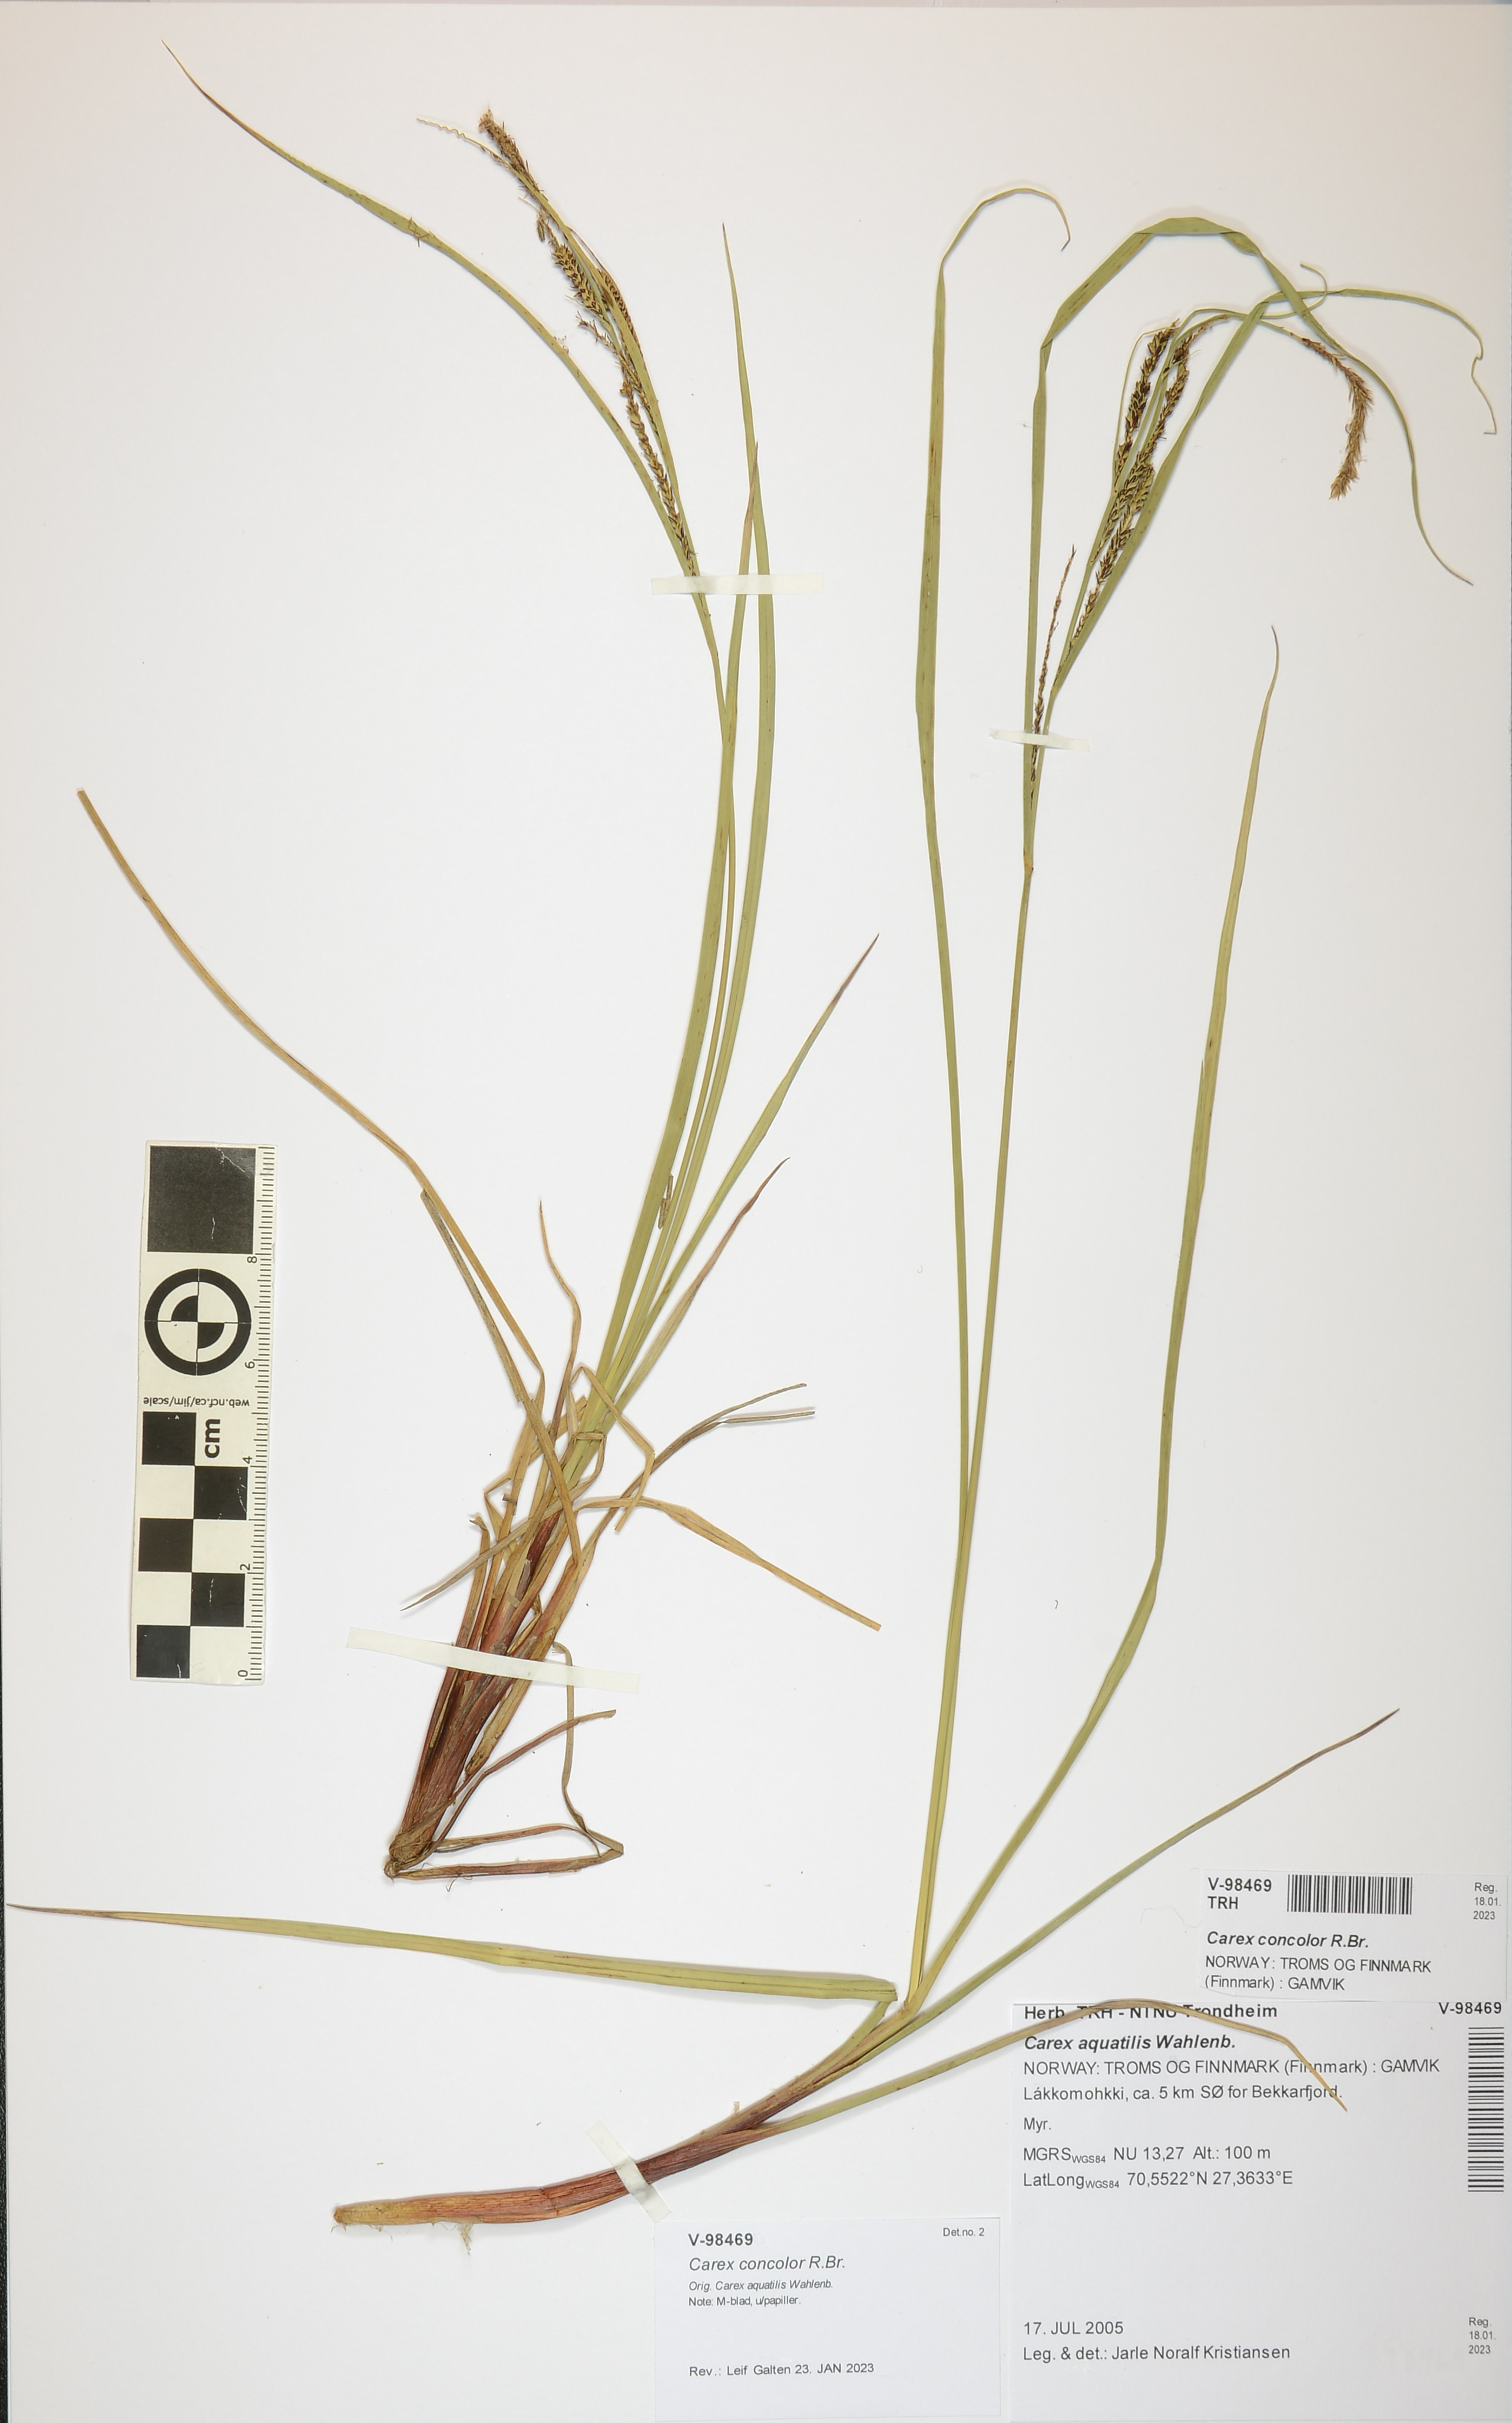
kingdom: Plantae
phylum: Tracheophyta
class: Liliopsida
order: Poales
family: Cyperaceae
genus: Carex
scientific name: Carex aquatilis
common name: Water sedge
